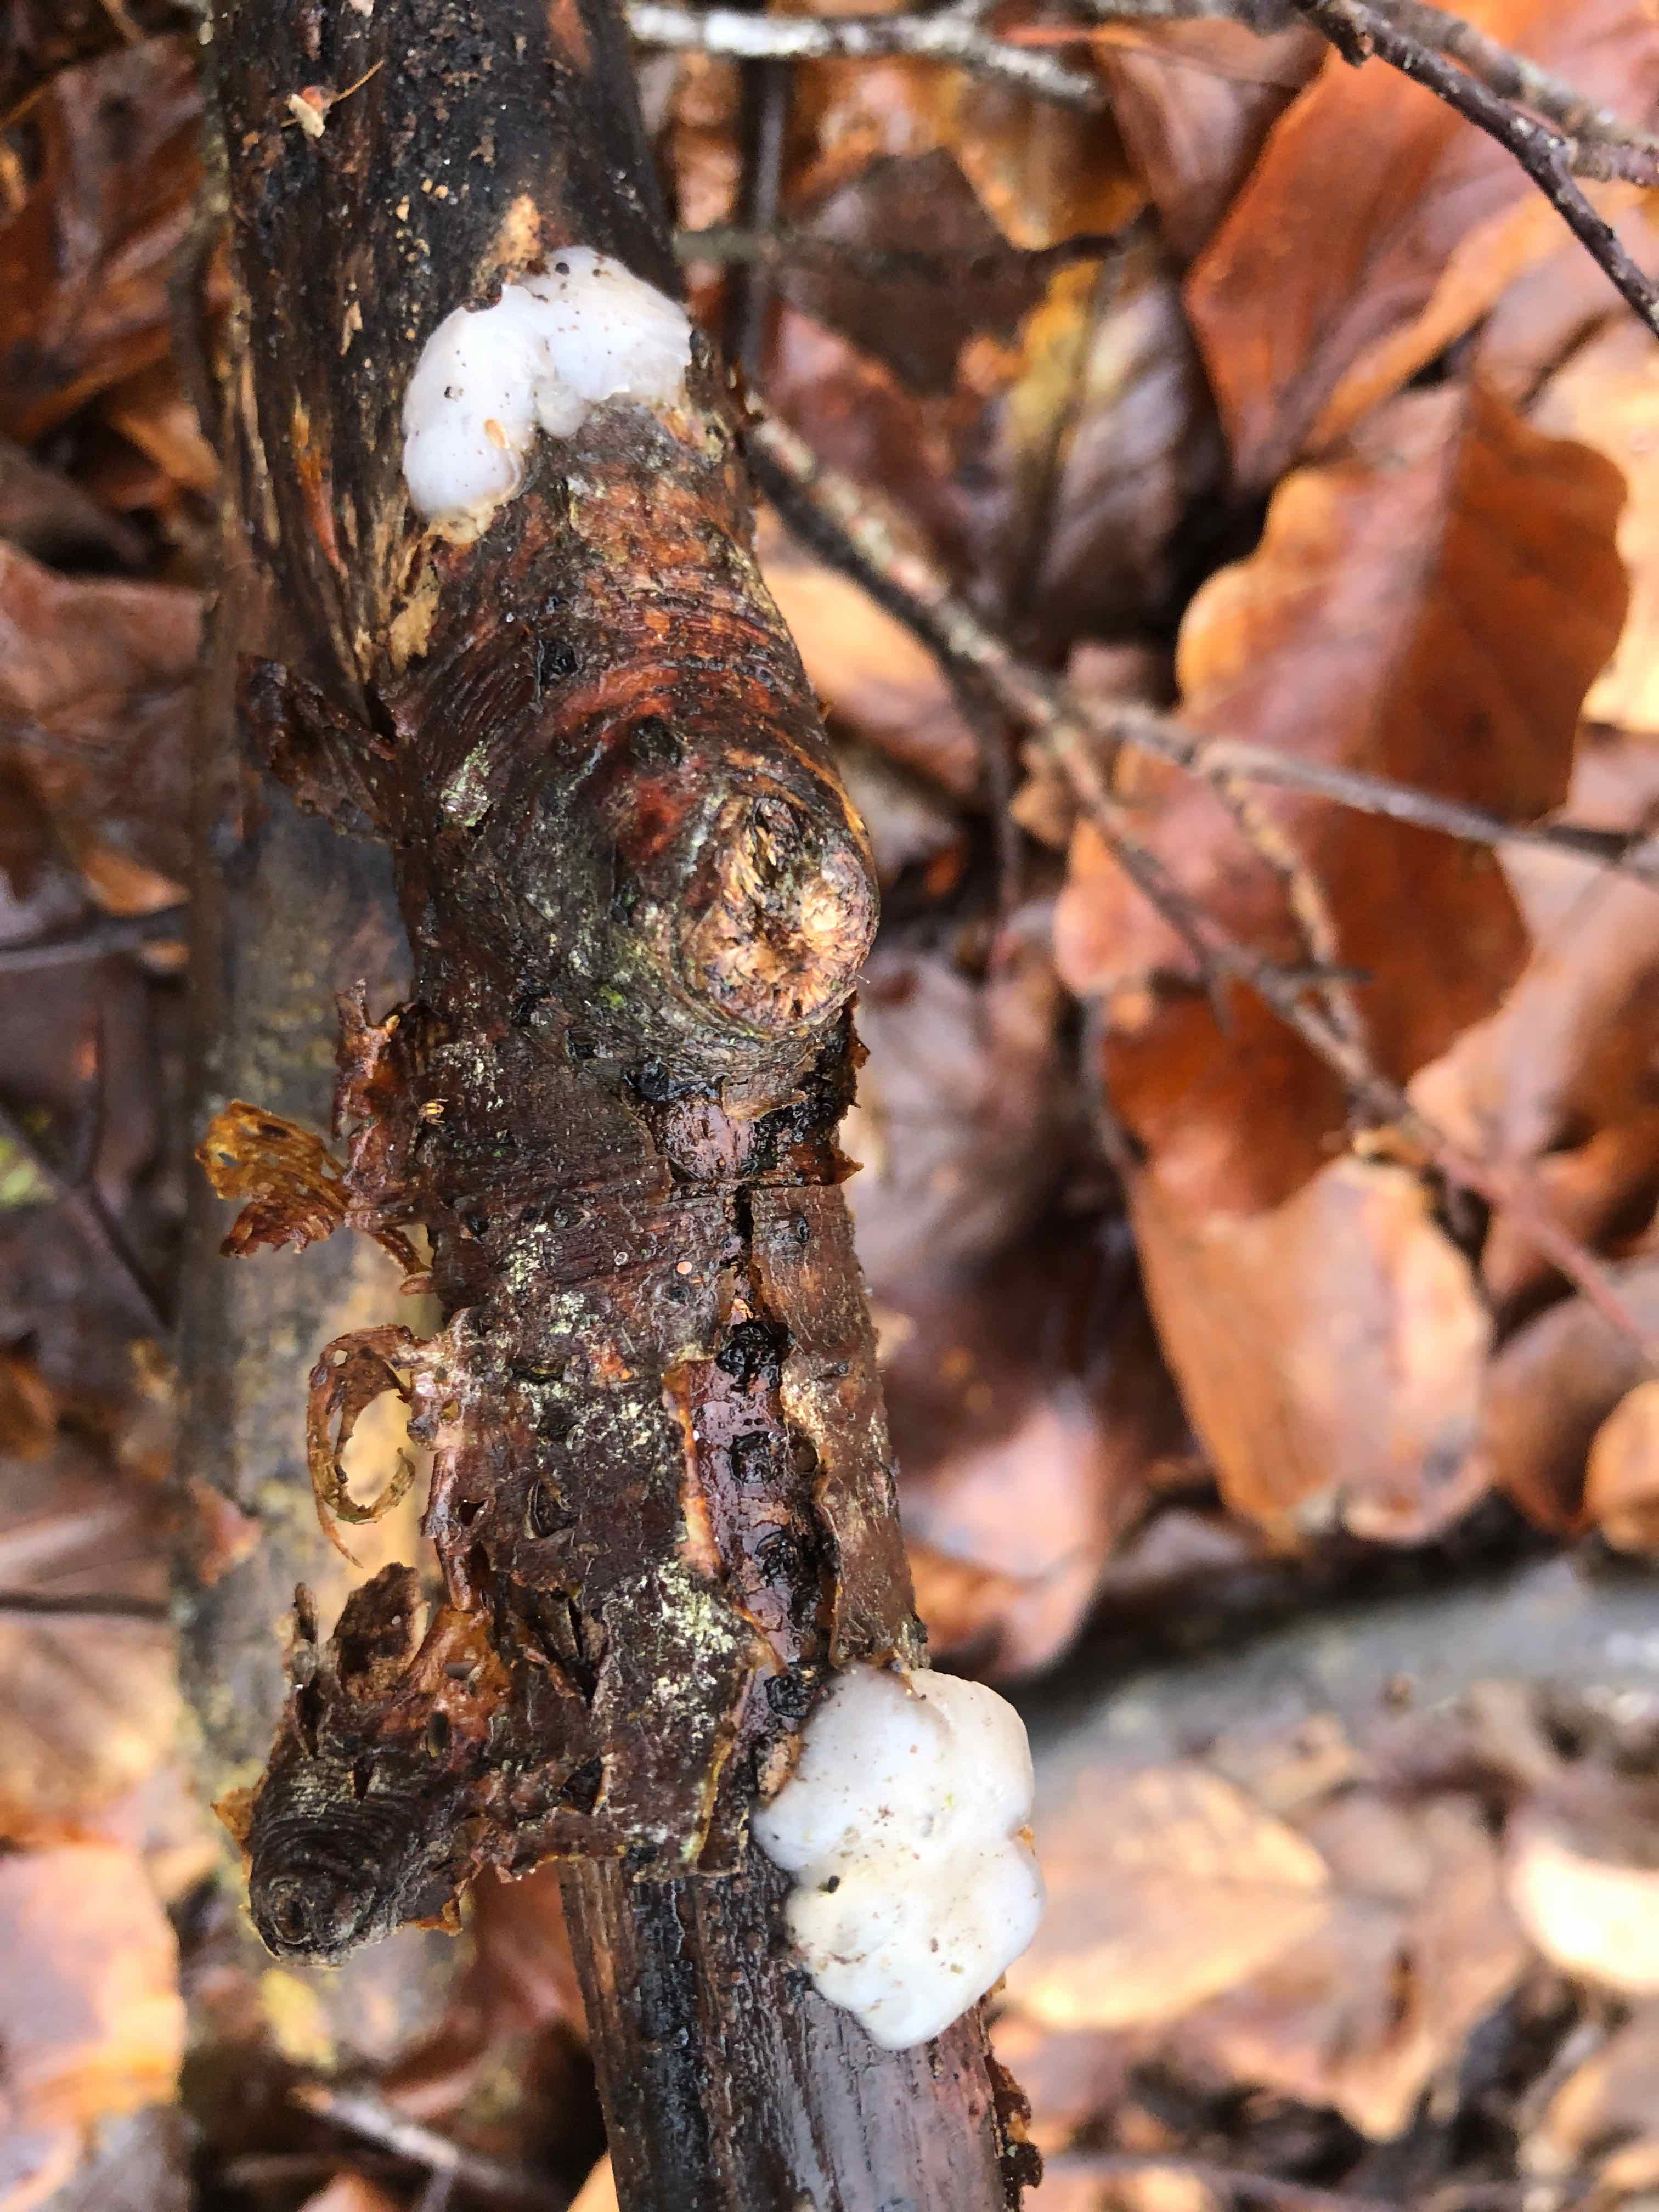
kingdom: Fungi
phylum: Basidiomycota
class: Agaricomycetes
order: Auriculariales
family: Auriculariaceae
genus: Exidia
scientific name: Exidia thuretiana
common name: hvidlig bævretop
